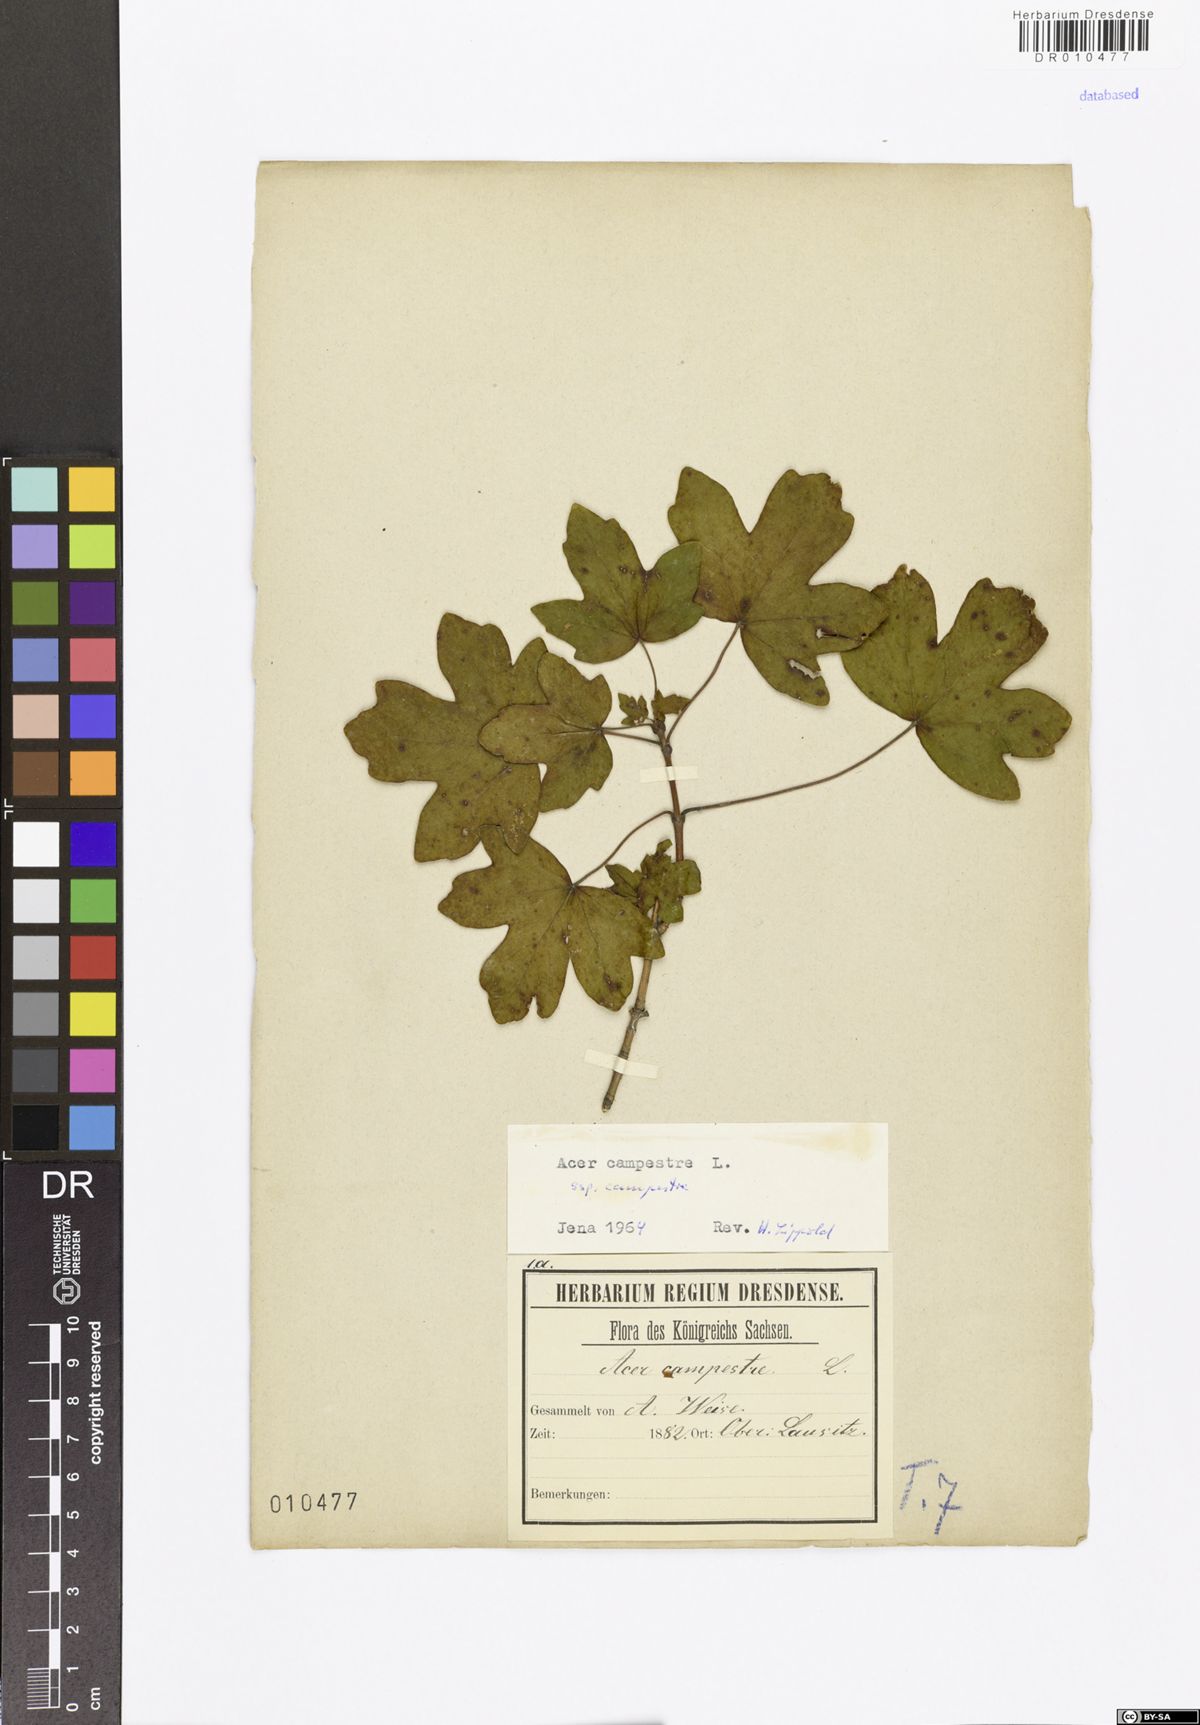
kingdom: Plantae
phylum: Tracheophyta
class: Magnoliopsida
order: Sapindales
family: Sapindaceae
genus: Acer
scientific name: Acer campestre
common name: Field maple
